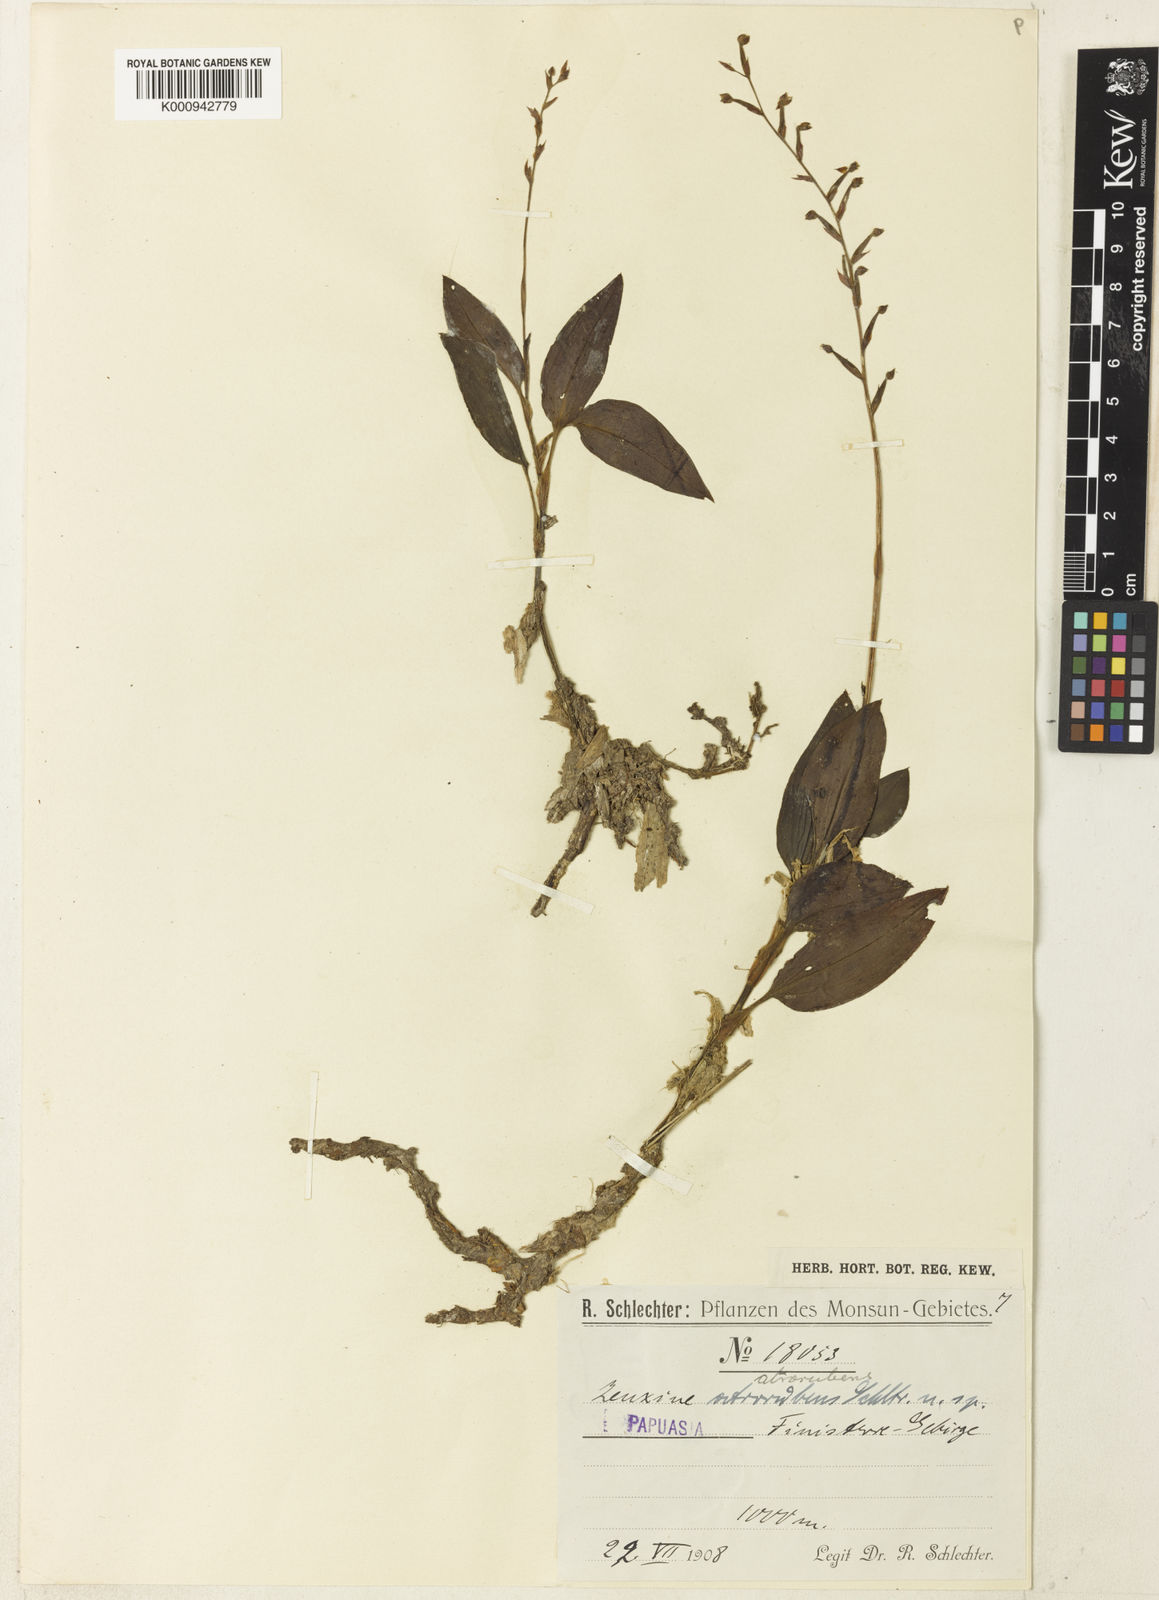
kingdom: Plantae
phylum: Tracheophyta
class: Liliopsida
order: Asparagales
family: Orchidaceae
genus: Rhomboda
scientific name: Rhomboda atrorubens
